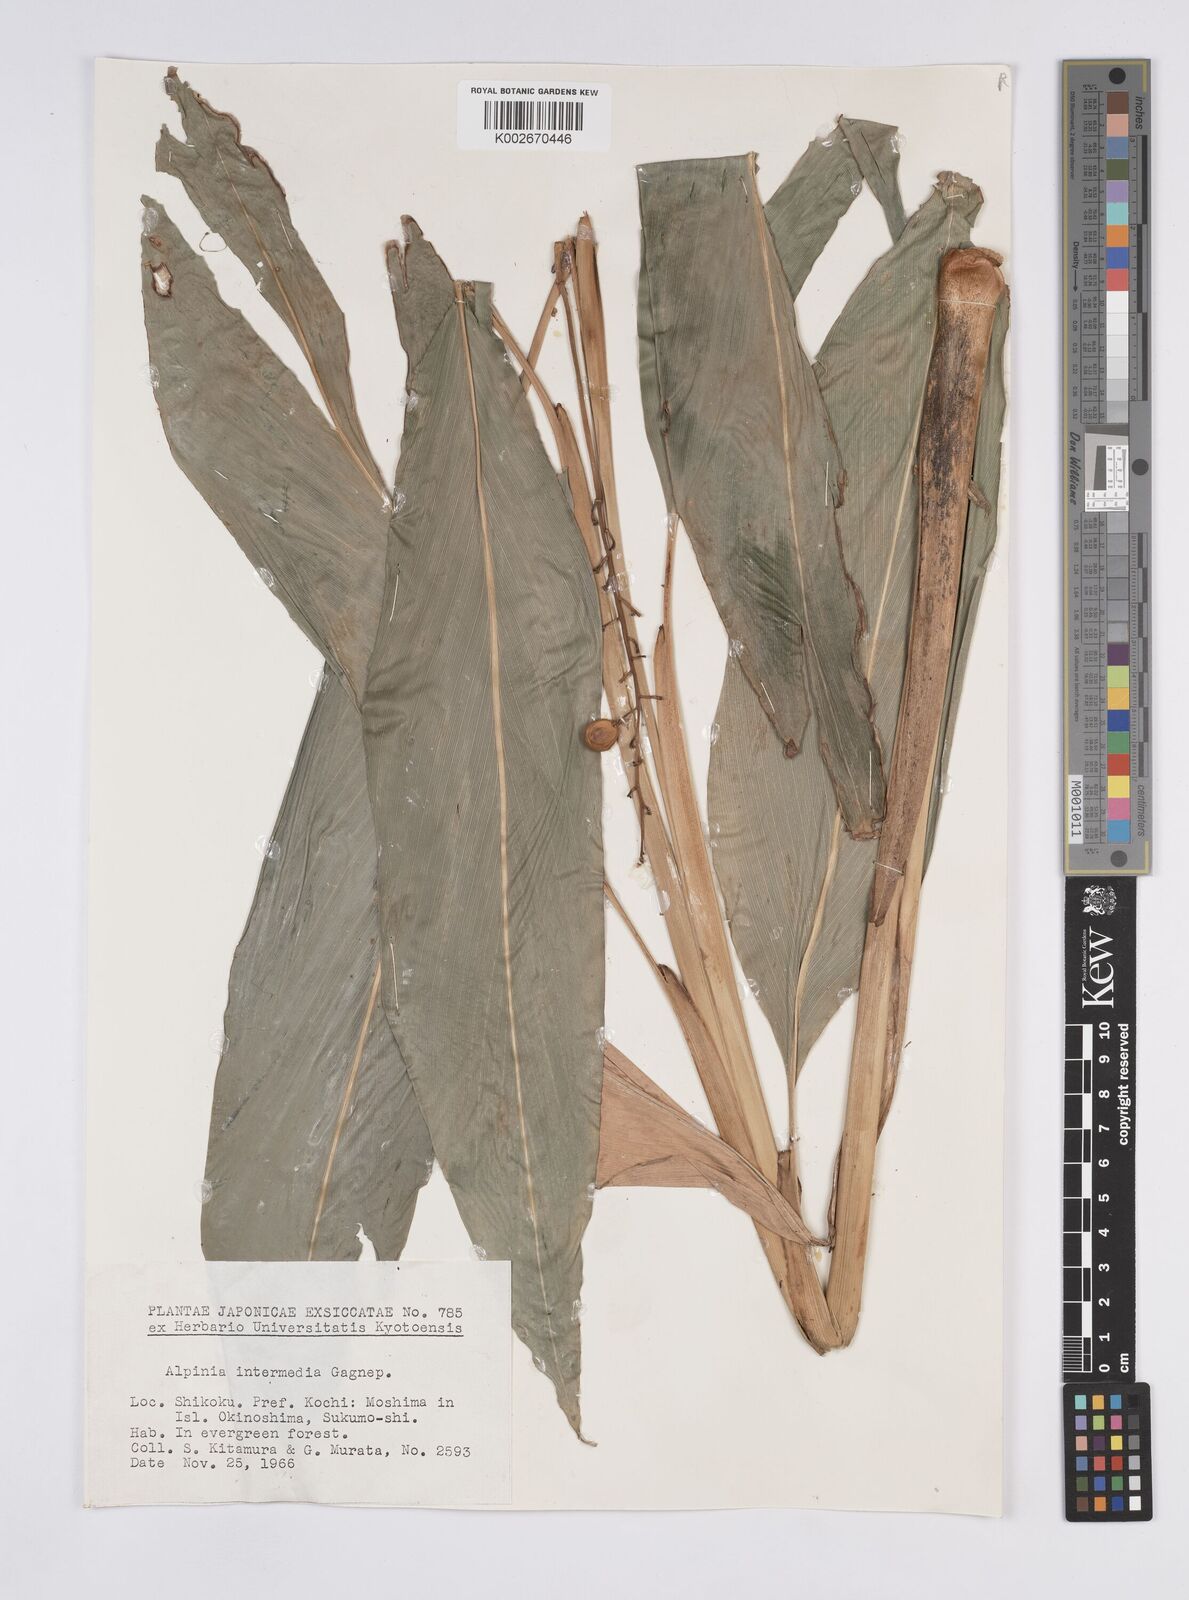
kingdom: Plantae
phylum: Tracheophyta
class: Liliopsida
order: Zingiberales
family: Zingiberaceae
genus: Alpinia
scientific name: Alpinia intermedia
